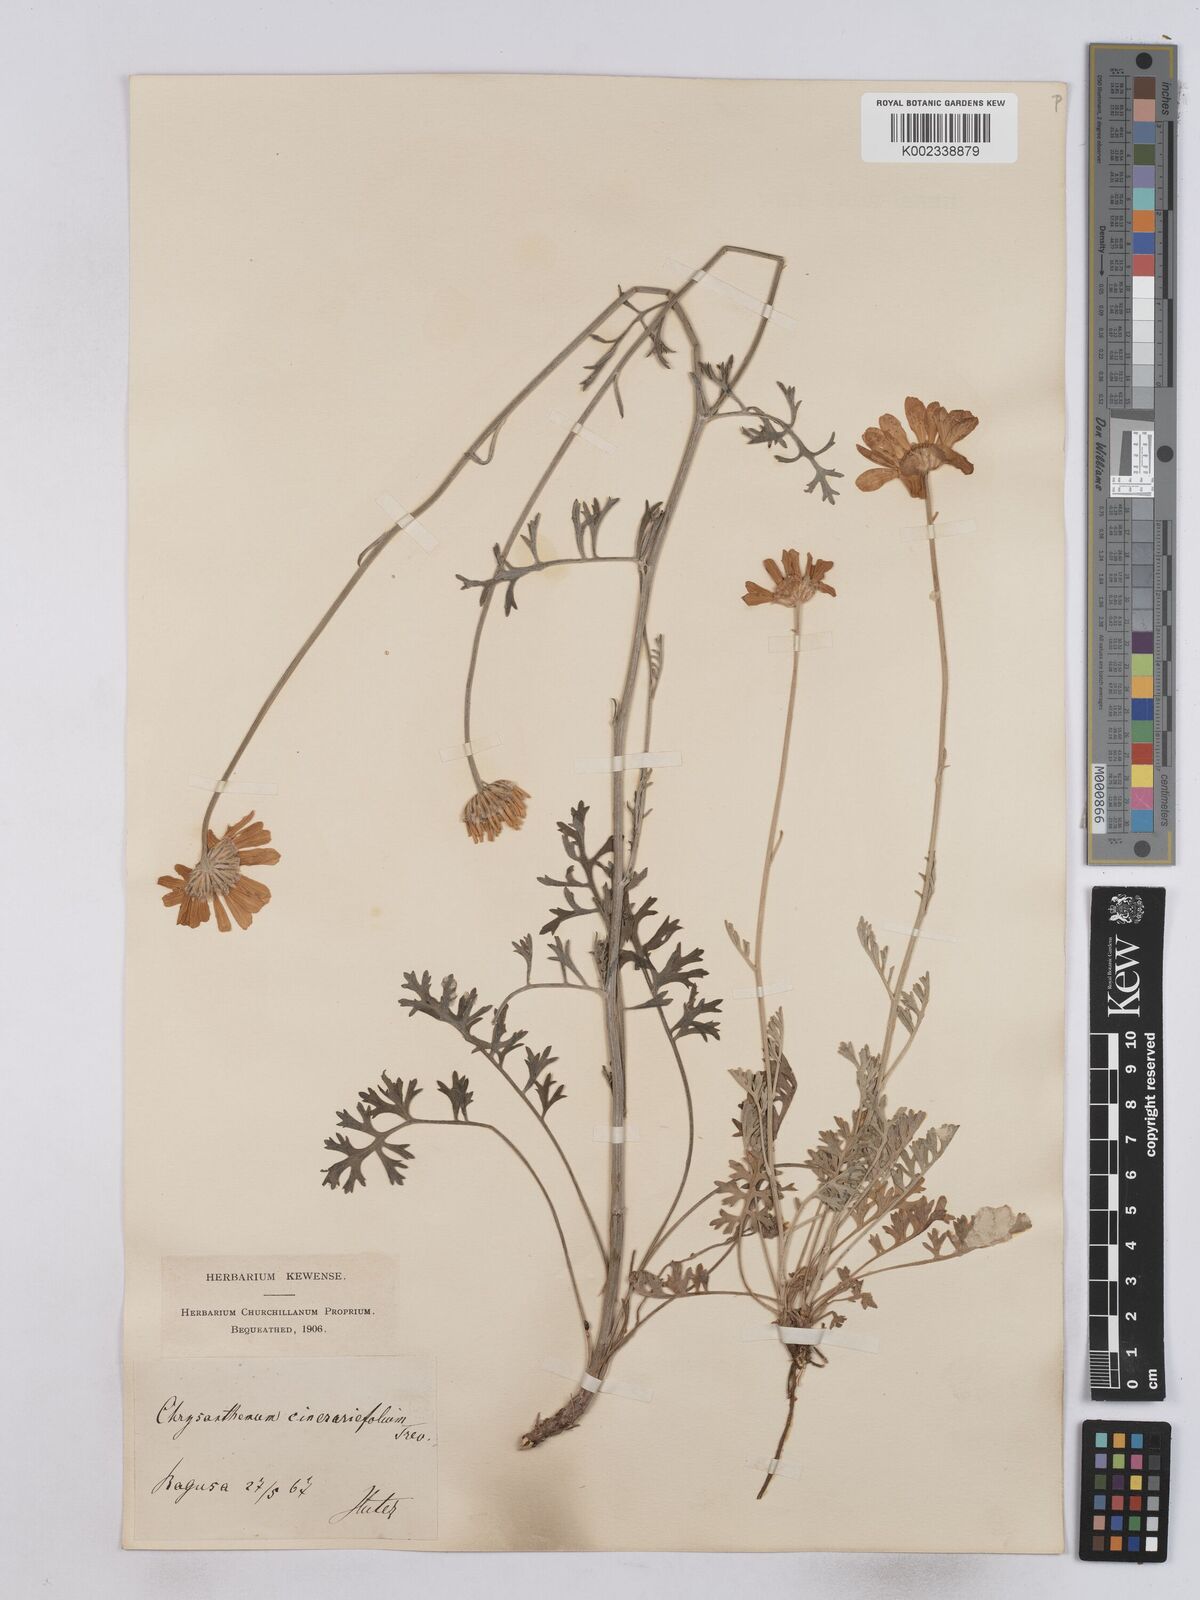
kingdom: Plantae
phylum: Tracheophyta
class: Magnoliopsida
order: Asterales
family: Asteraceae
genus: Tanacetum
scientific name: Tanacetum cinerariifolium
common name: Dalmatian pyrethrum
